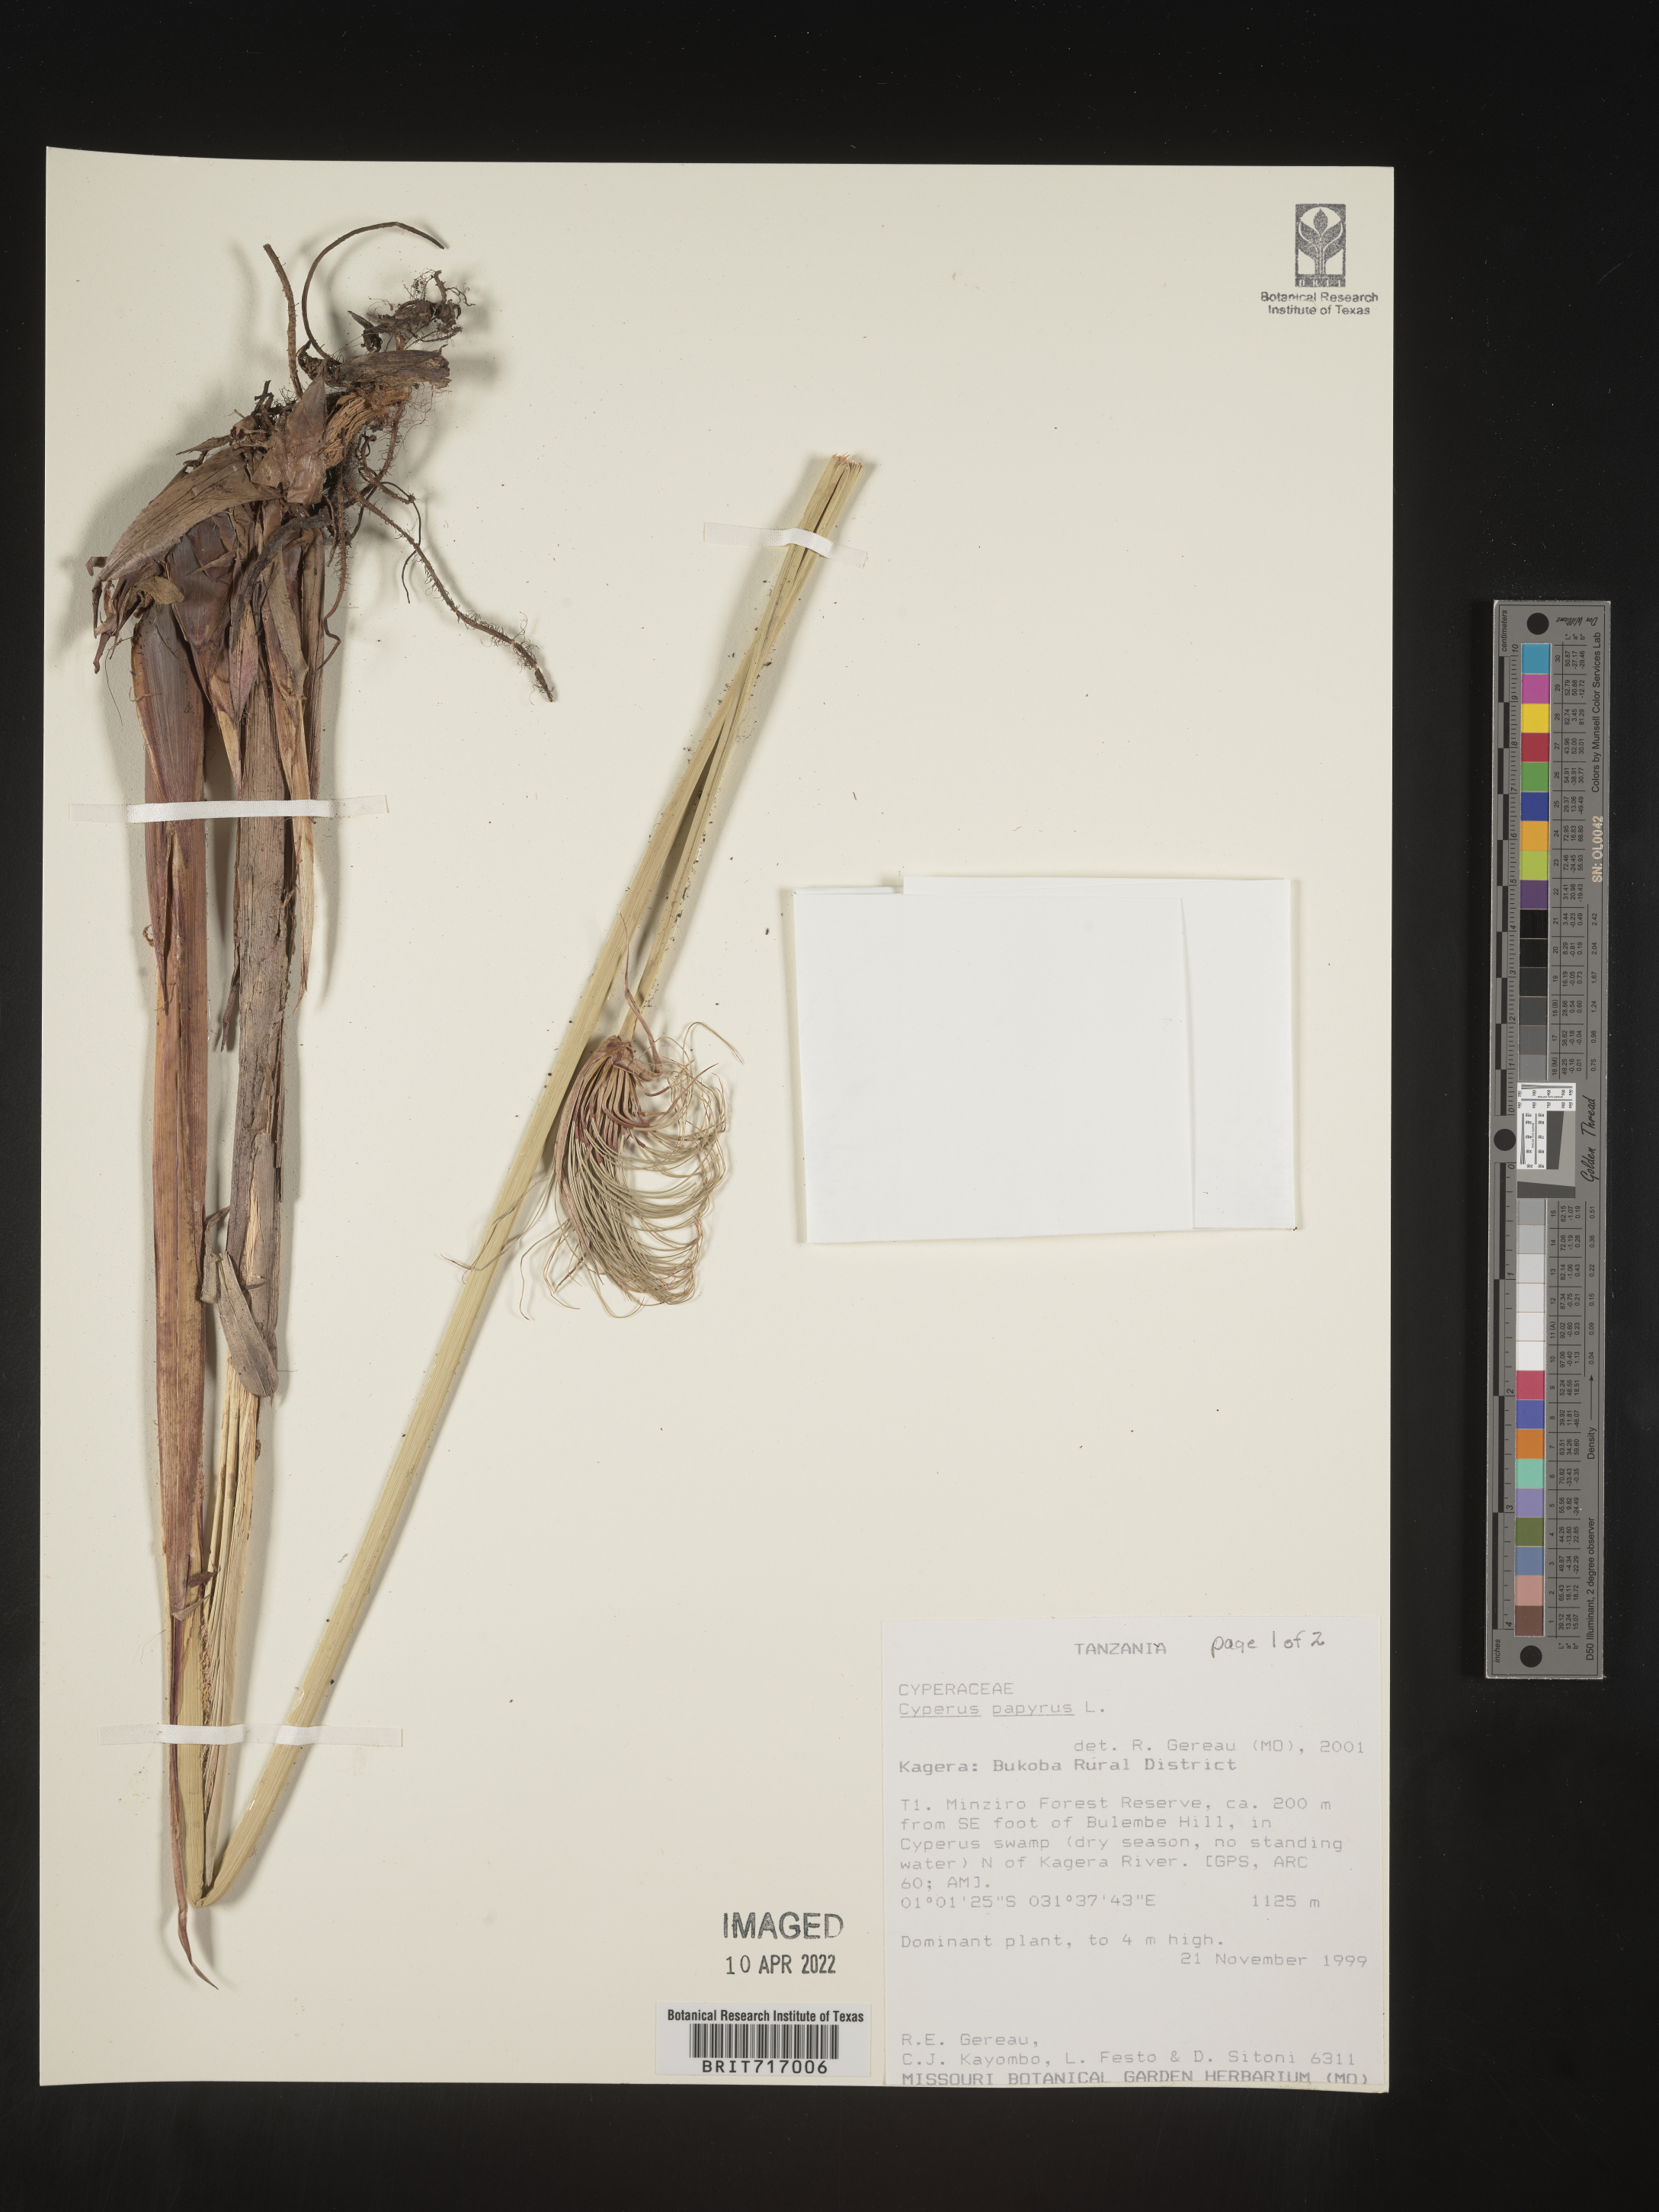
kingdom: Plantae
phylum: Tracheophyta
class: Liliopsida
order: Poales
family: Cyperaceae
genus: Cyperus
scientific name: Cyperus
